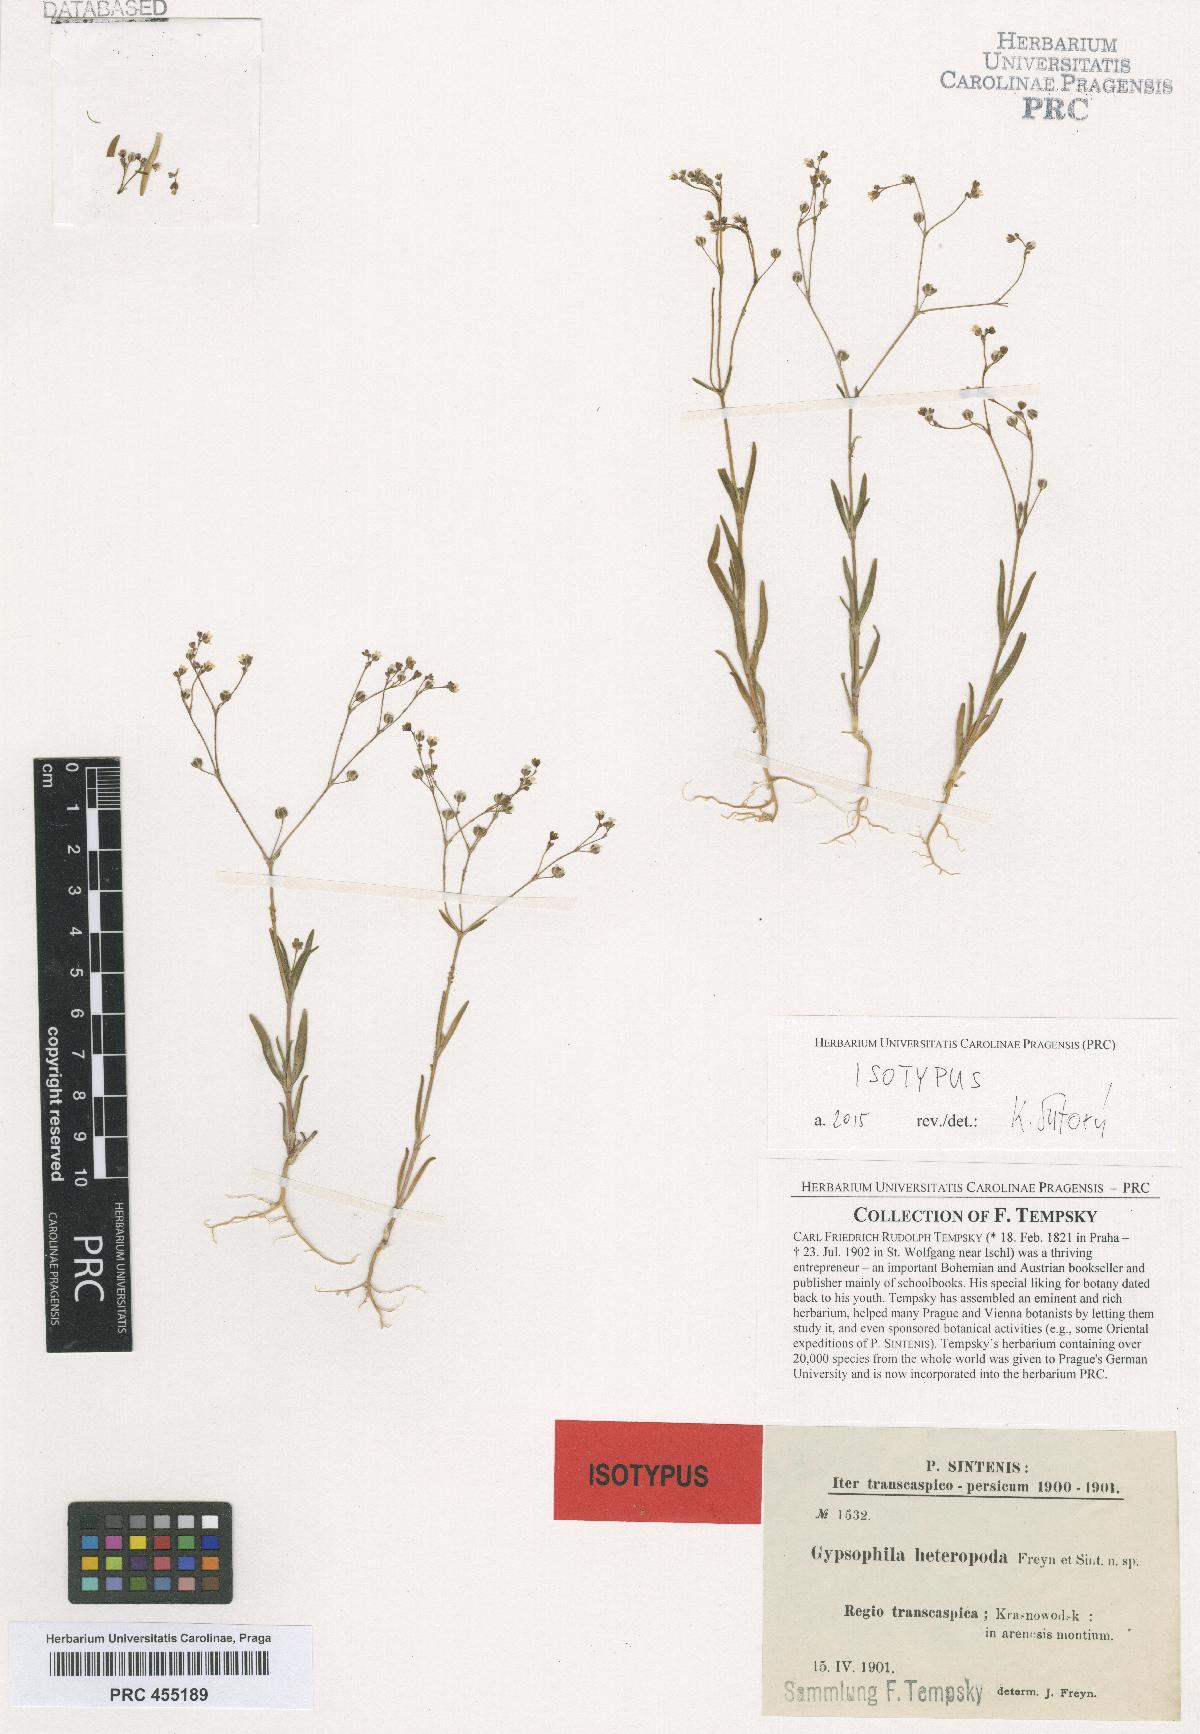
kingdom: Plantae
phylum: Tracheophyta
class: Magnoliopsida
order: Caryophyllales
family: Caryophyllaceae
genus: Gypsophila
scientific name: Gypsophila heteropoda
